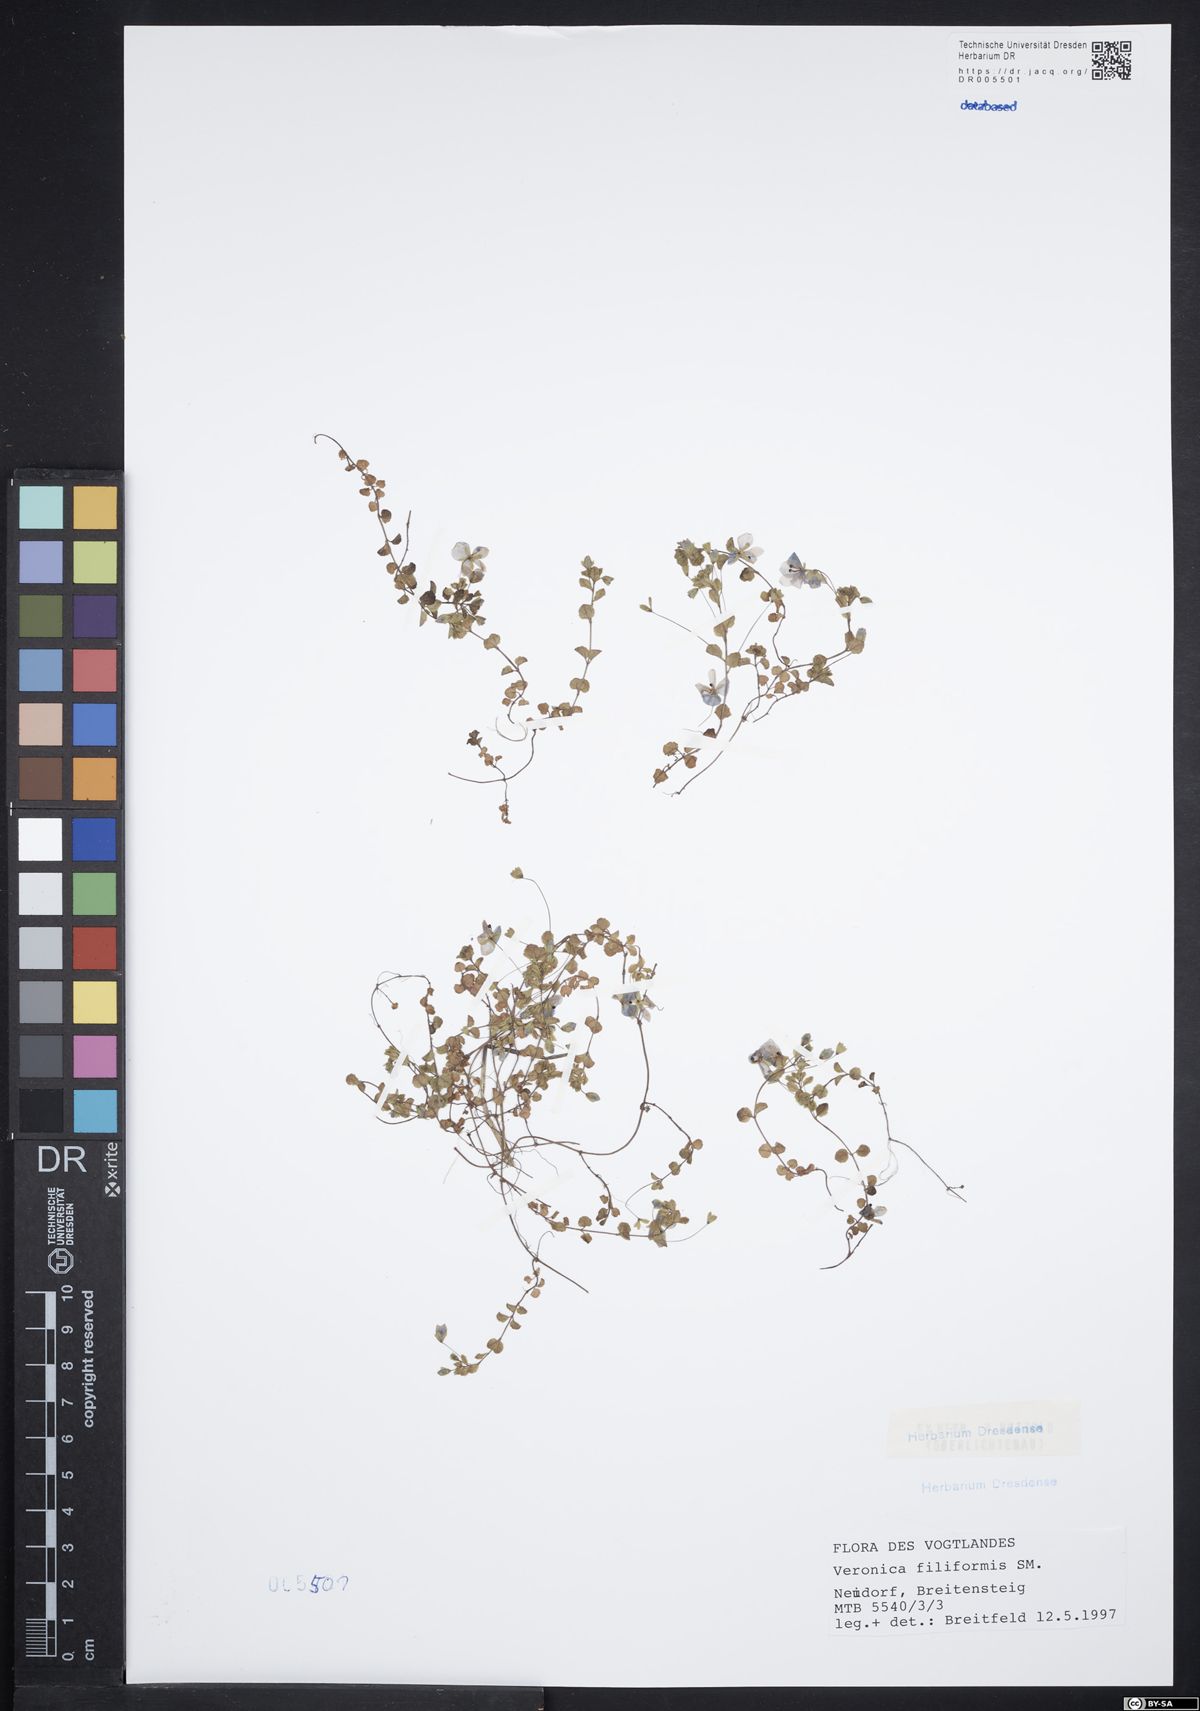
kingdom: Plantae
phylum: Tracheophyta
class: Magnoliopsida
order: Lamiales
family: Plantaginaceae
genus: Veronica
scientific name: Veronica filiformis
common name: Slender speedwell
